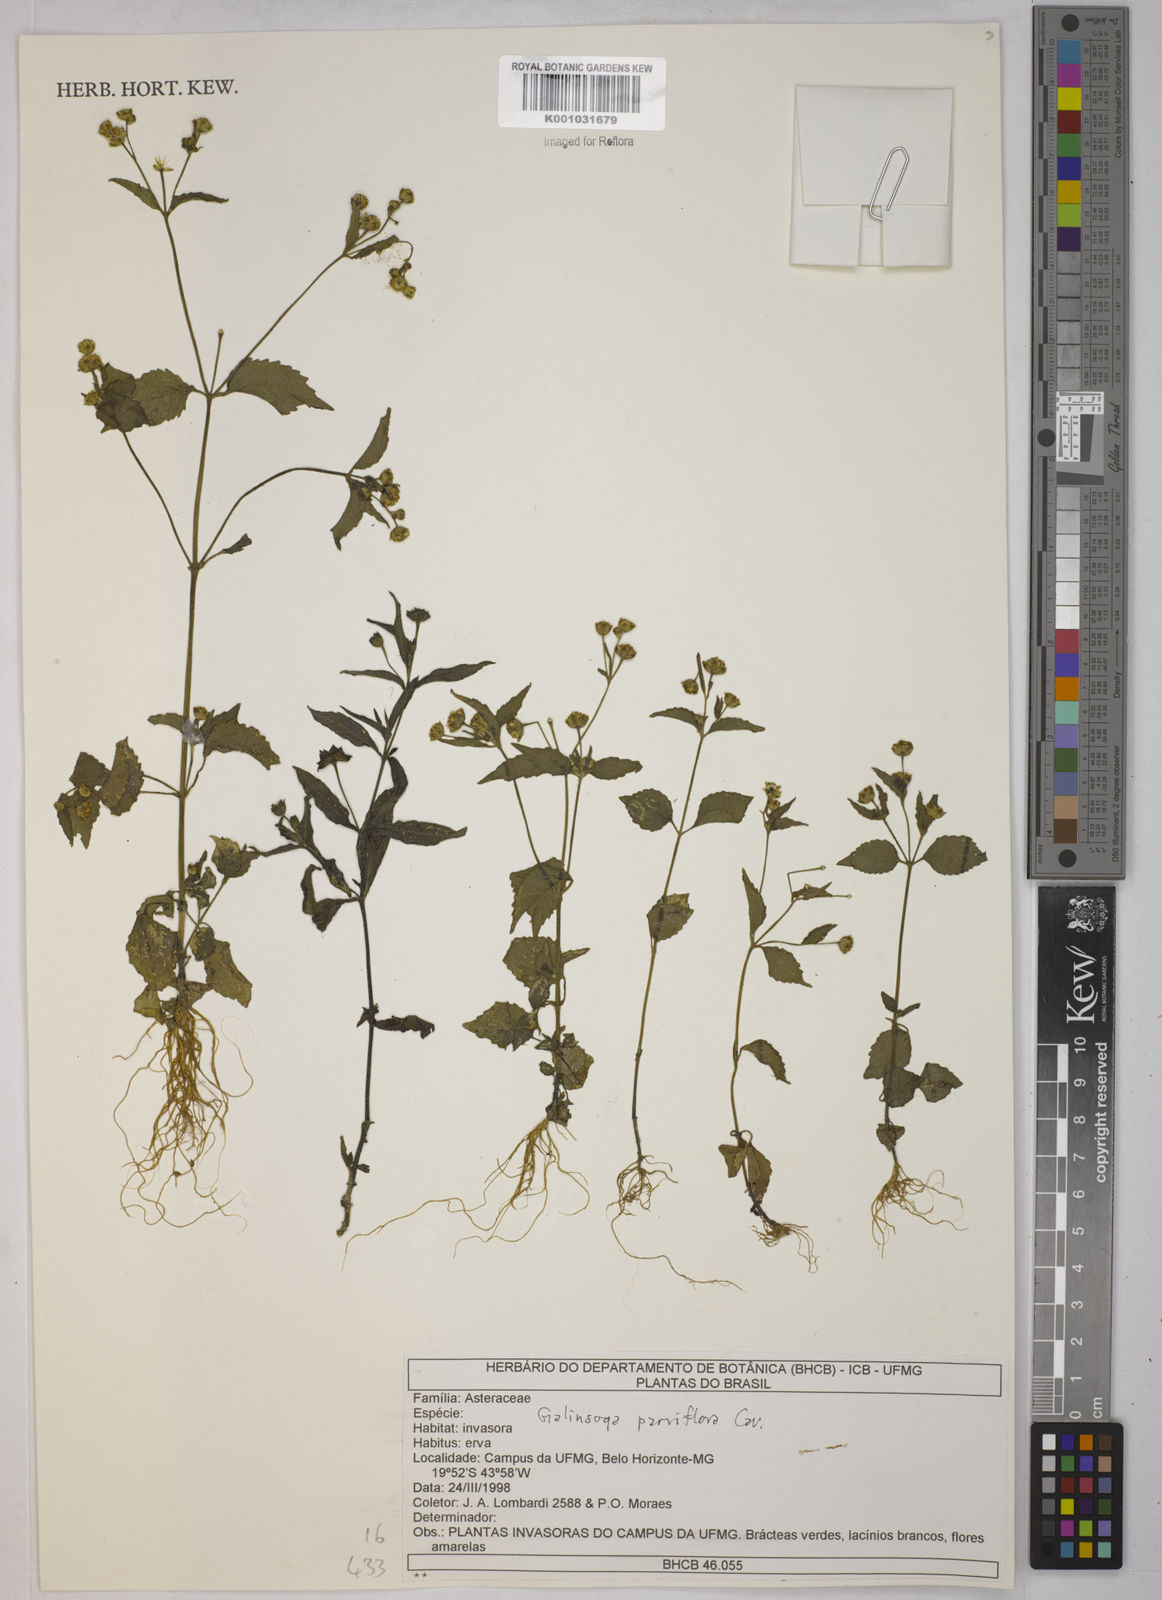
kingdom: Plantae
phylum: Tracheophyta
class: Magnoliopsida
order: Asterales
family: Asteraceae
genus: Galinsoga
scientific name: Galinsoga parviflora
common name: Gallant soldier
